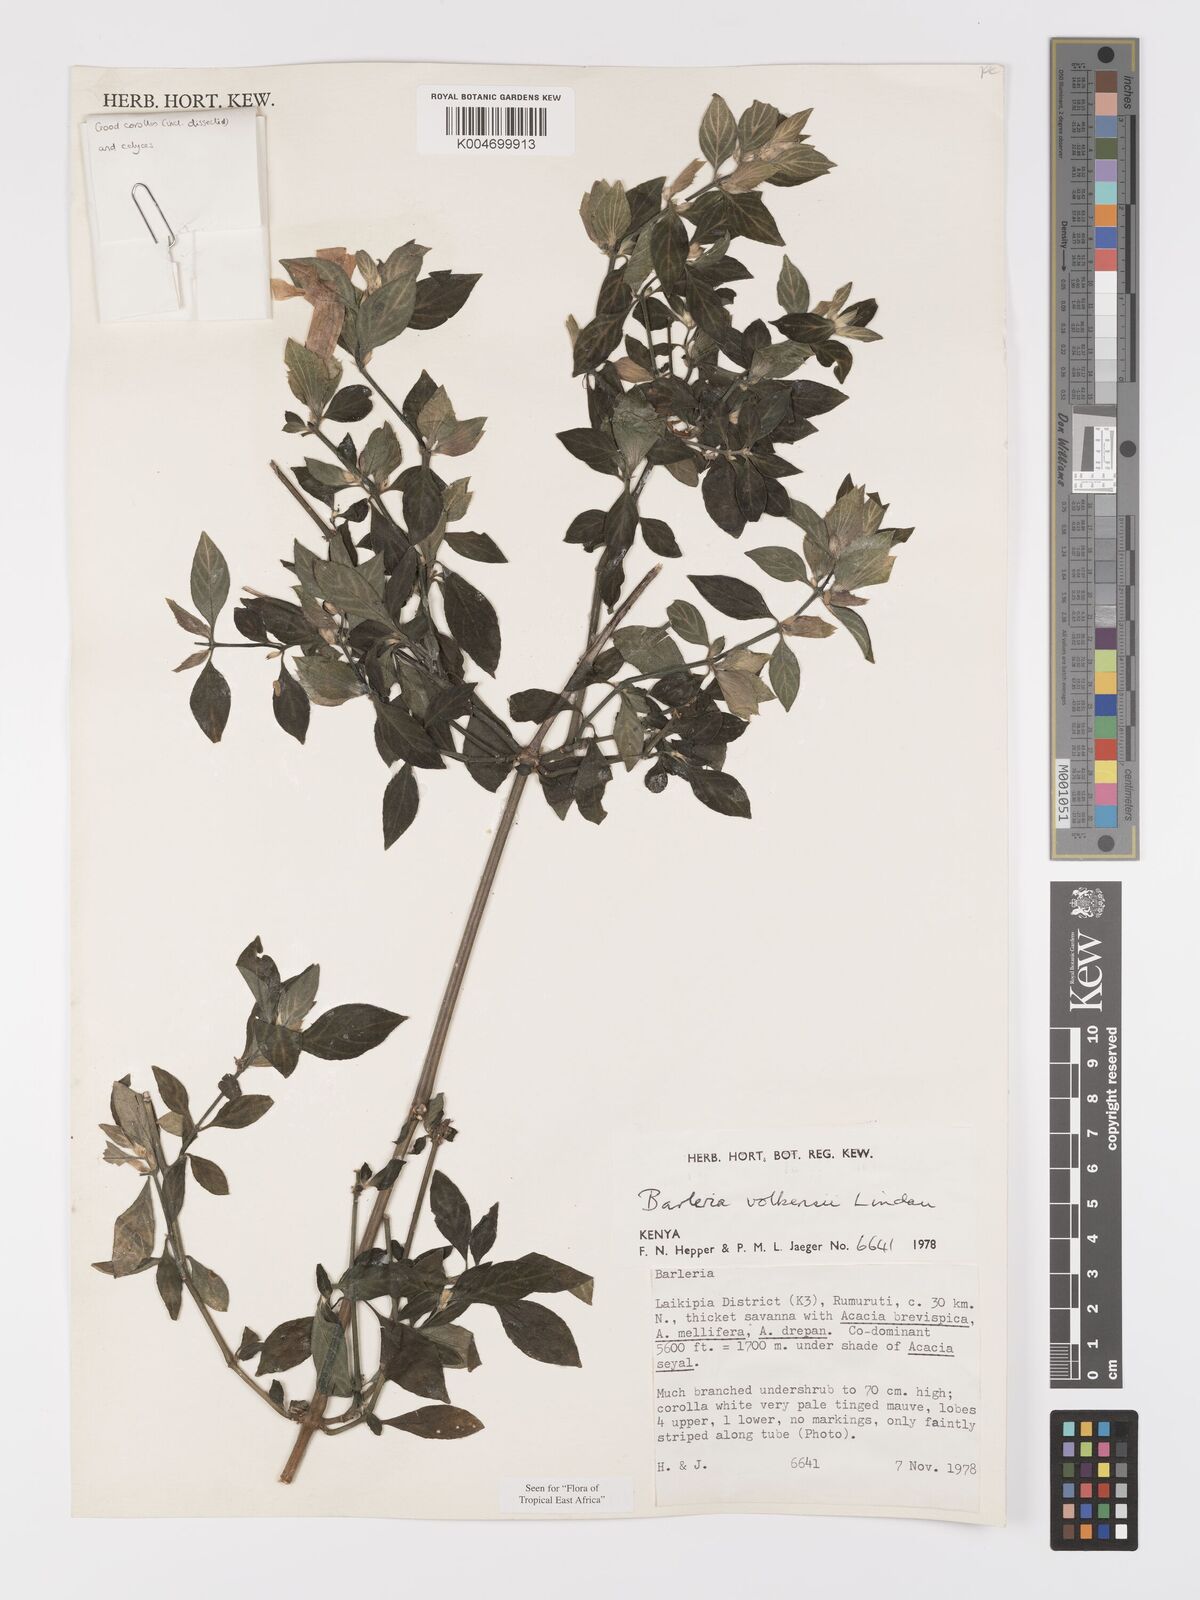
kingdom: Plantae
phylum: Tracheophyta
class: Magnoliopsida
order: Lamiales
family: Acanthaceae
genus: Barleria
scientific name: Barleria volkensii
